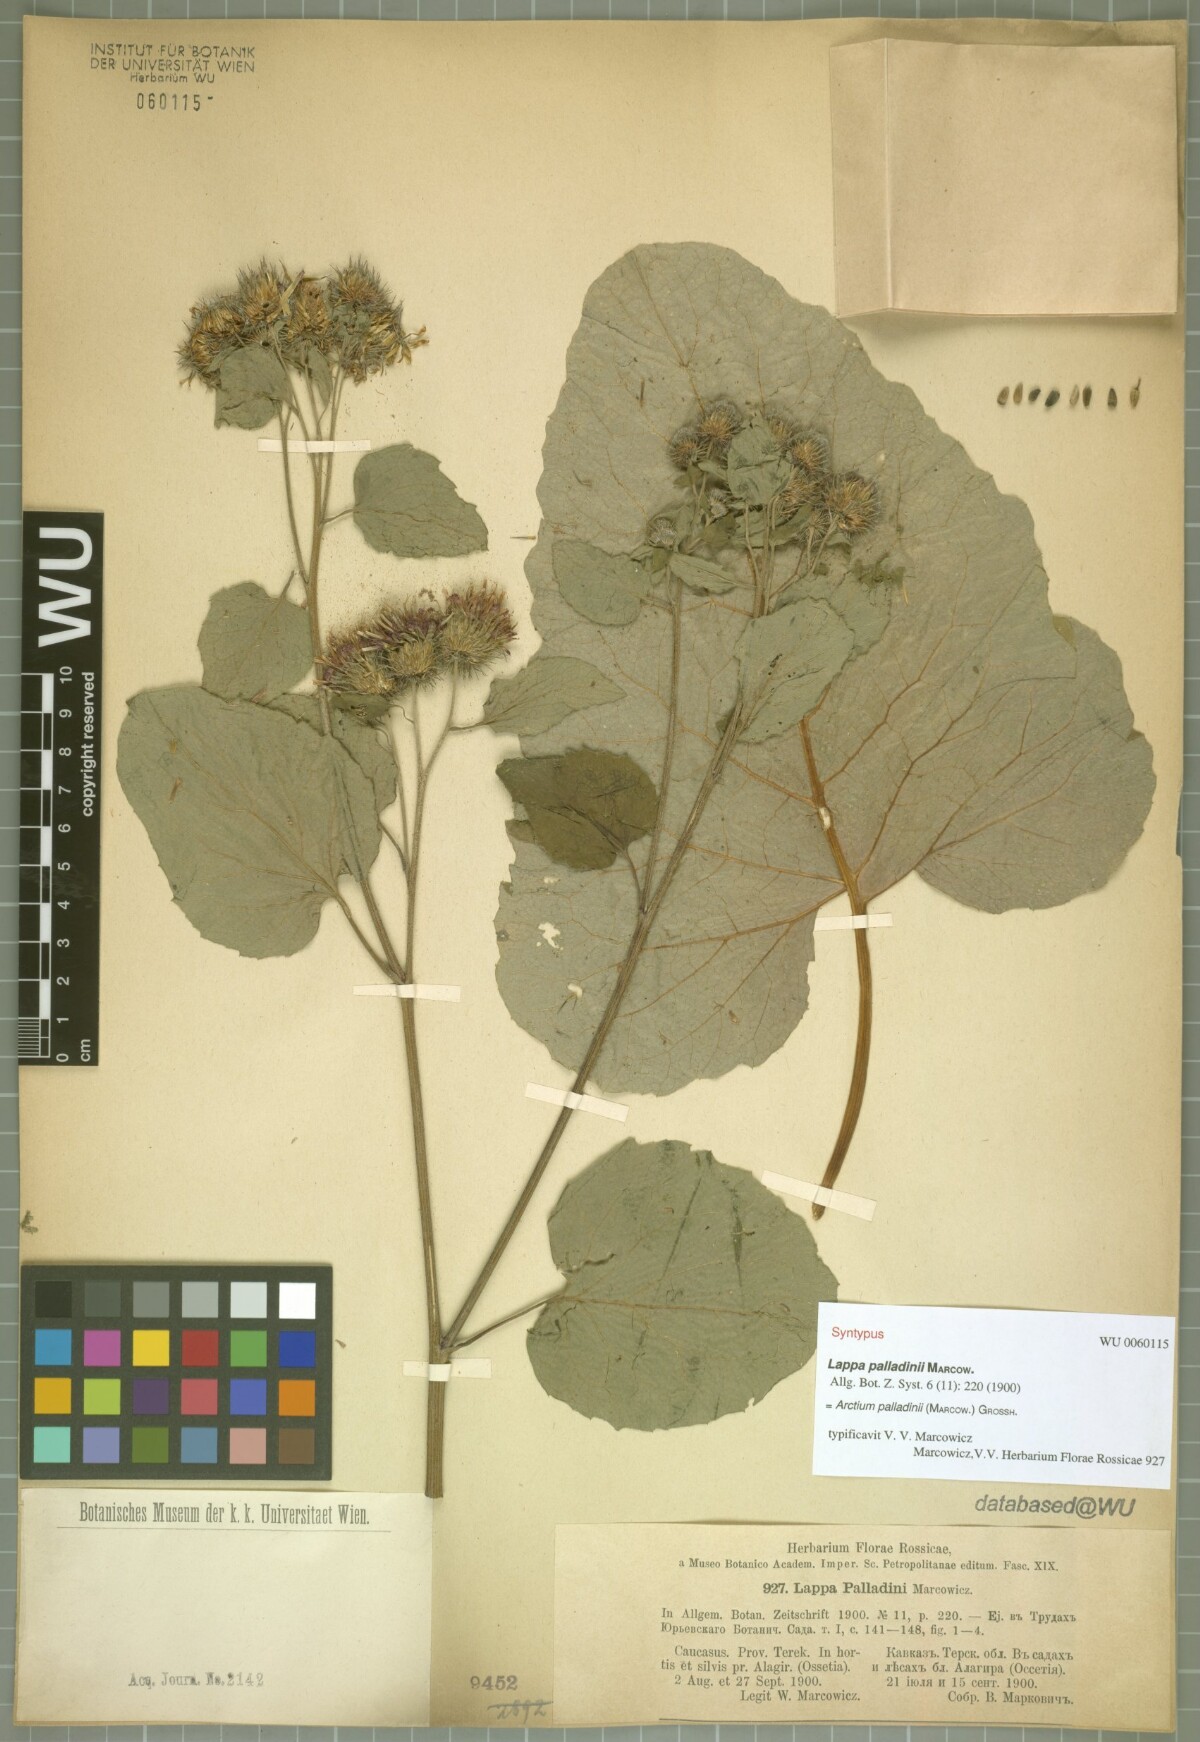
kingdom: Plantae
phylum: Tracheophyta
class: Magnoliopsida
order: Asterales
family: Asteraceae
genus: Arctium
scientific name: Arctium palladini
